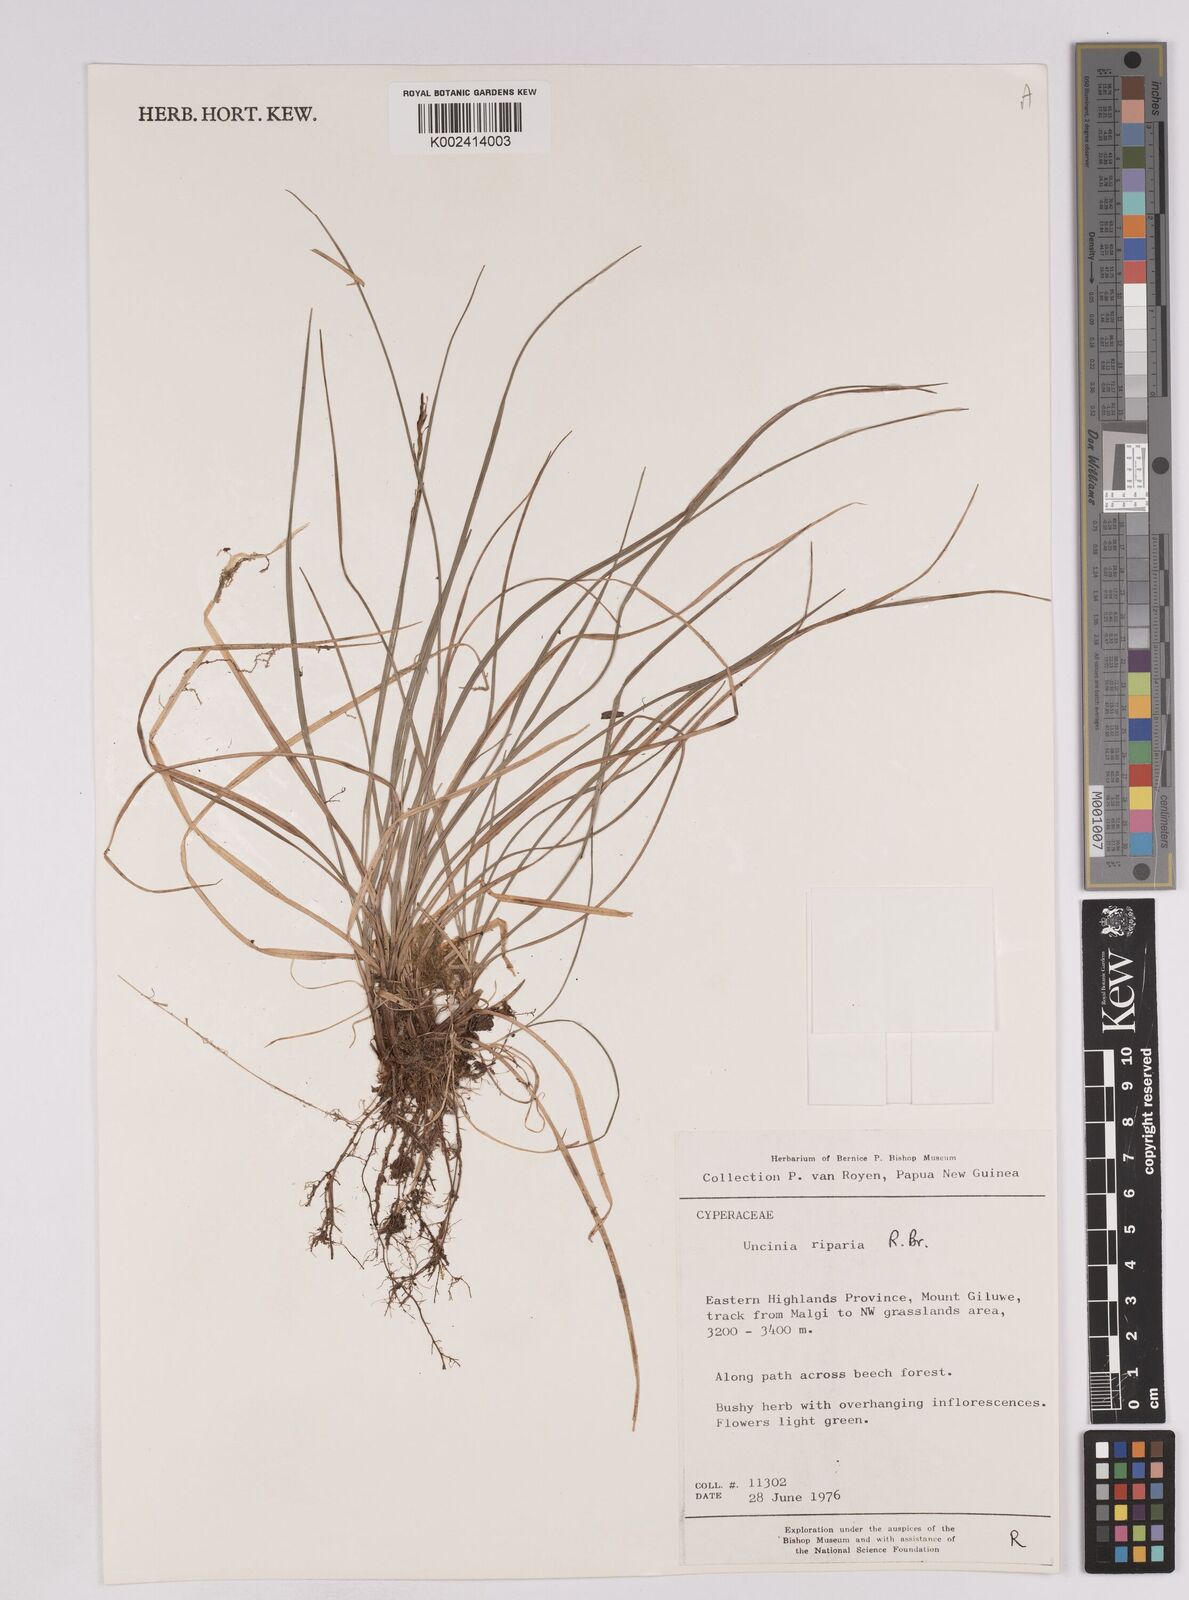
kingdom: Plantae
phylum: Tracheophyta
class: Liliopsida
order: Poales
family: Cyperaceae
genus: Carex
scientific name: Carex sclerophylla
